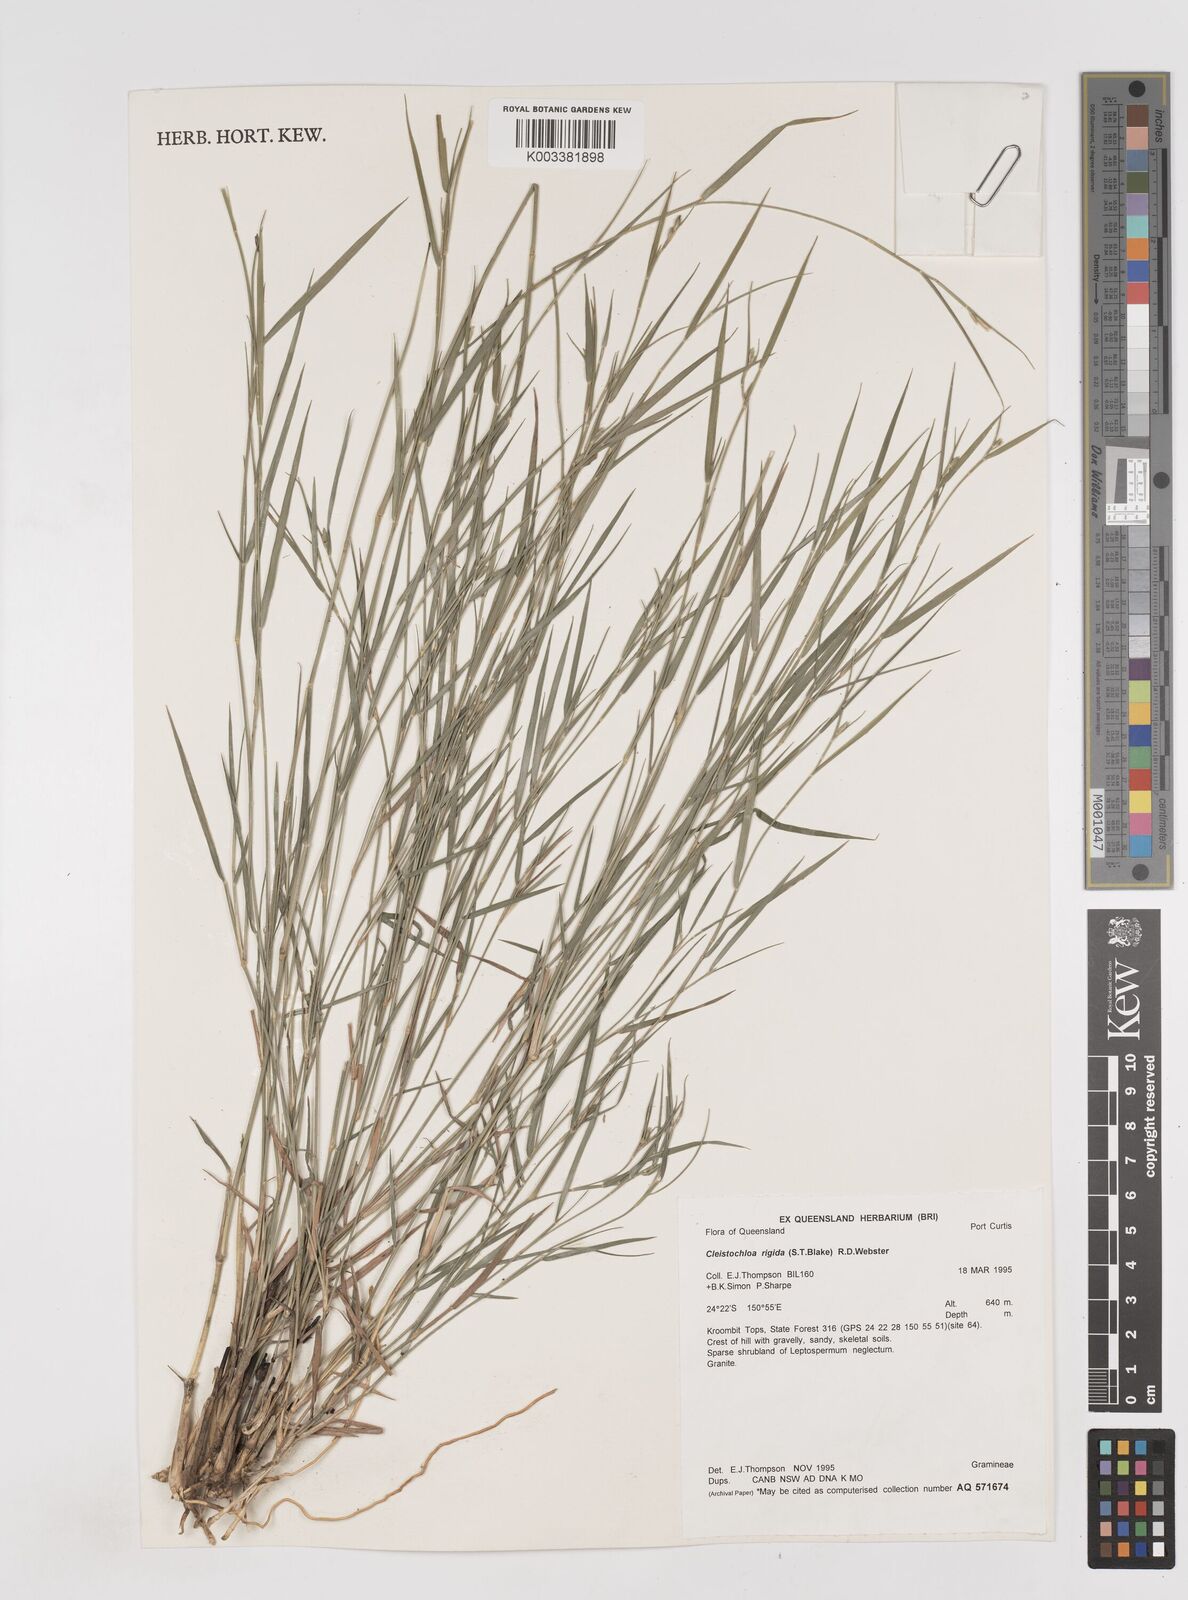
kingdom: Plantae
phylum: Tracheophyta
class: Liliopsida
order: Poales
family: Poaceae
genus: Dimorphochloa
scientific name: Dimorphochloa rigida
